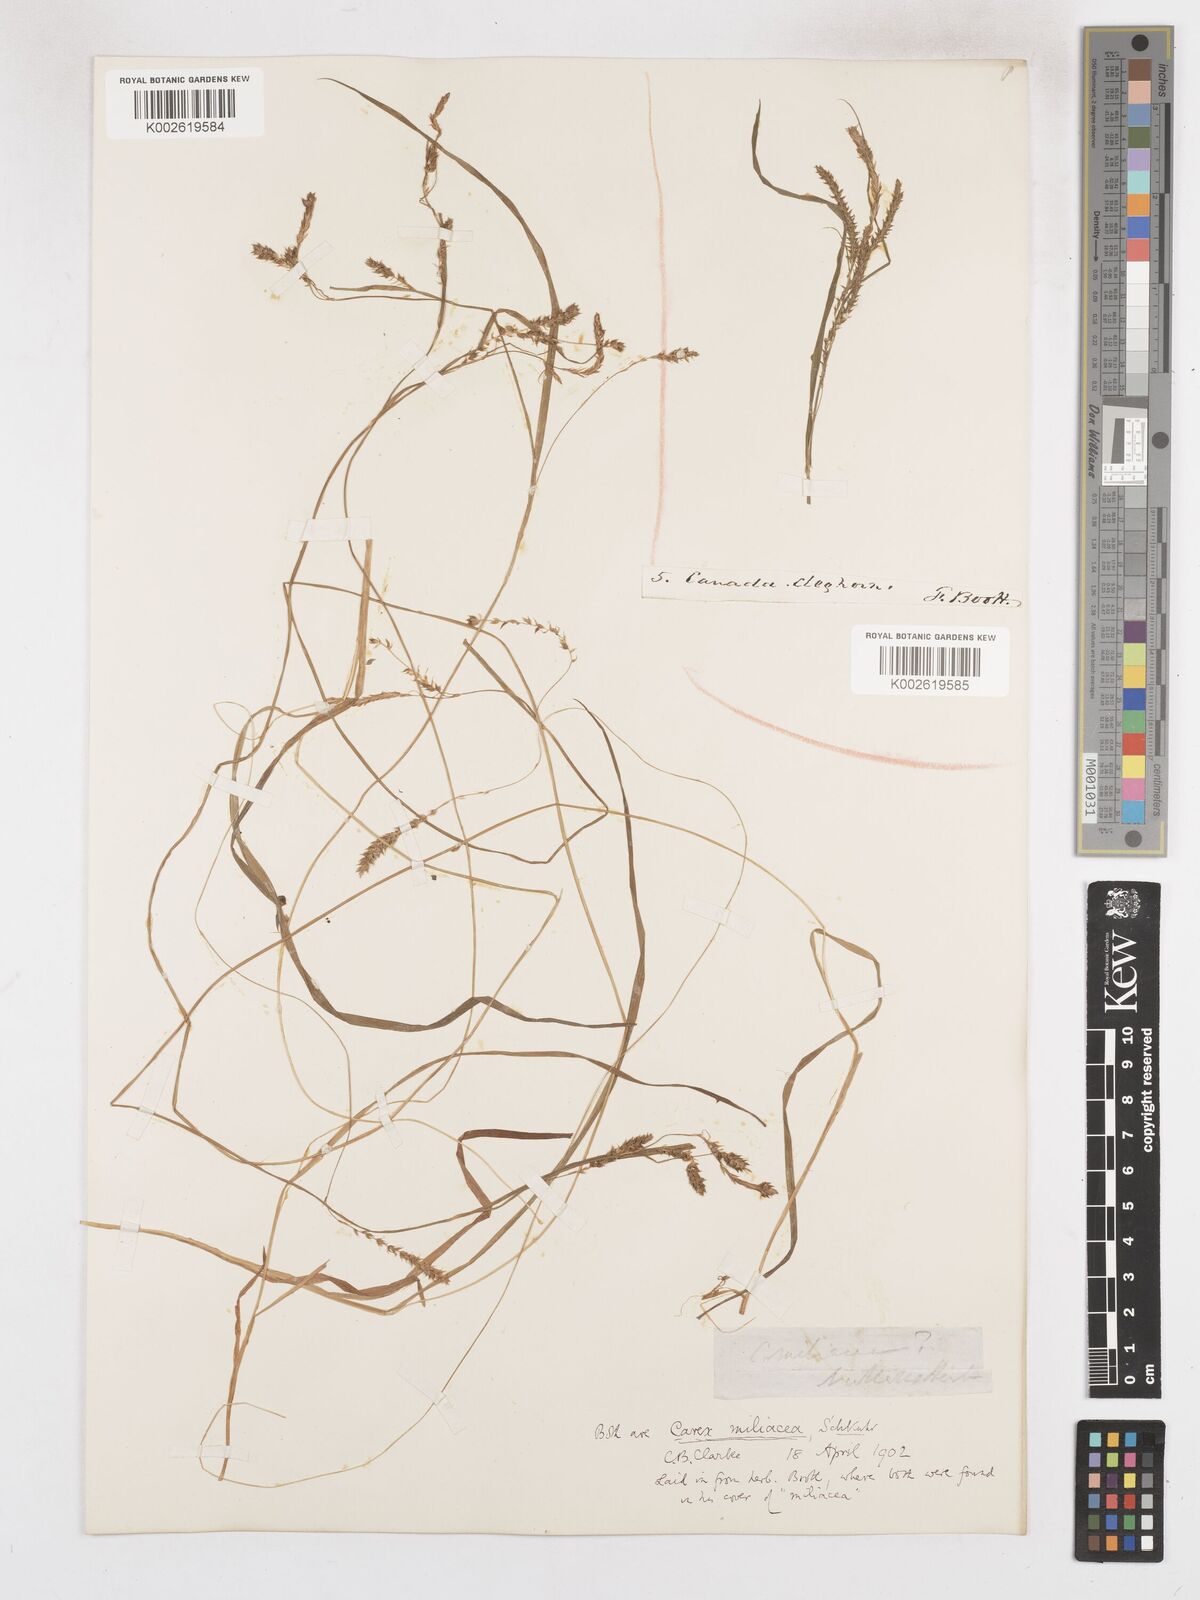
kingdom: Plantae
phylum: Tracheophyta
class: Liliopsida
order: Poales
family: Cyperaceae
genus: Carex
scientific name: Carex prasina
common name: Drooping sedge
